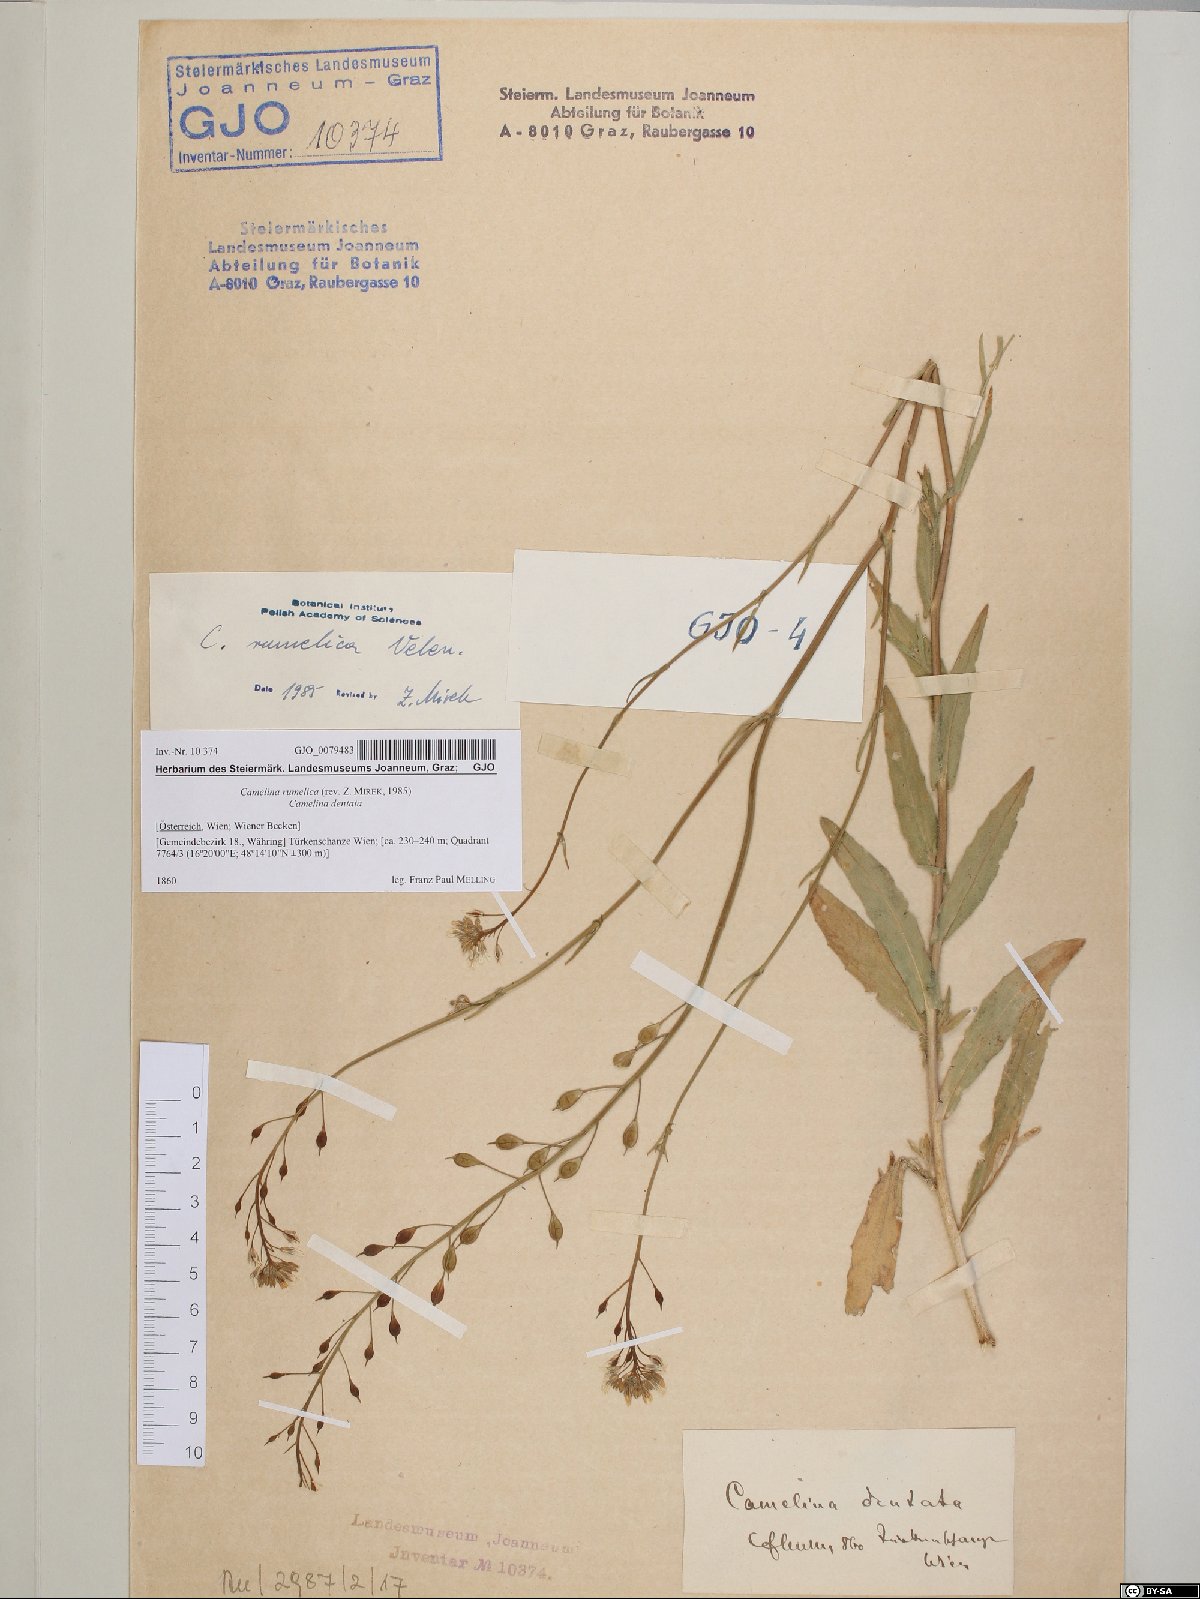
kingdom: Plantae
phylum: Tracheophyta
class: Magnoliopsida
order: Brassicales
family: Brassicaceae
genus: Camelina
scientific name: Camelina rumelica
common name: Graceful false flax
